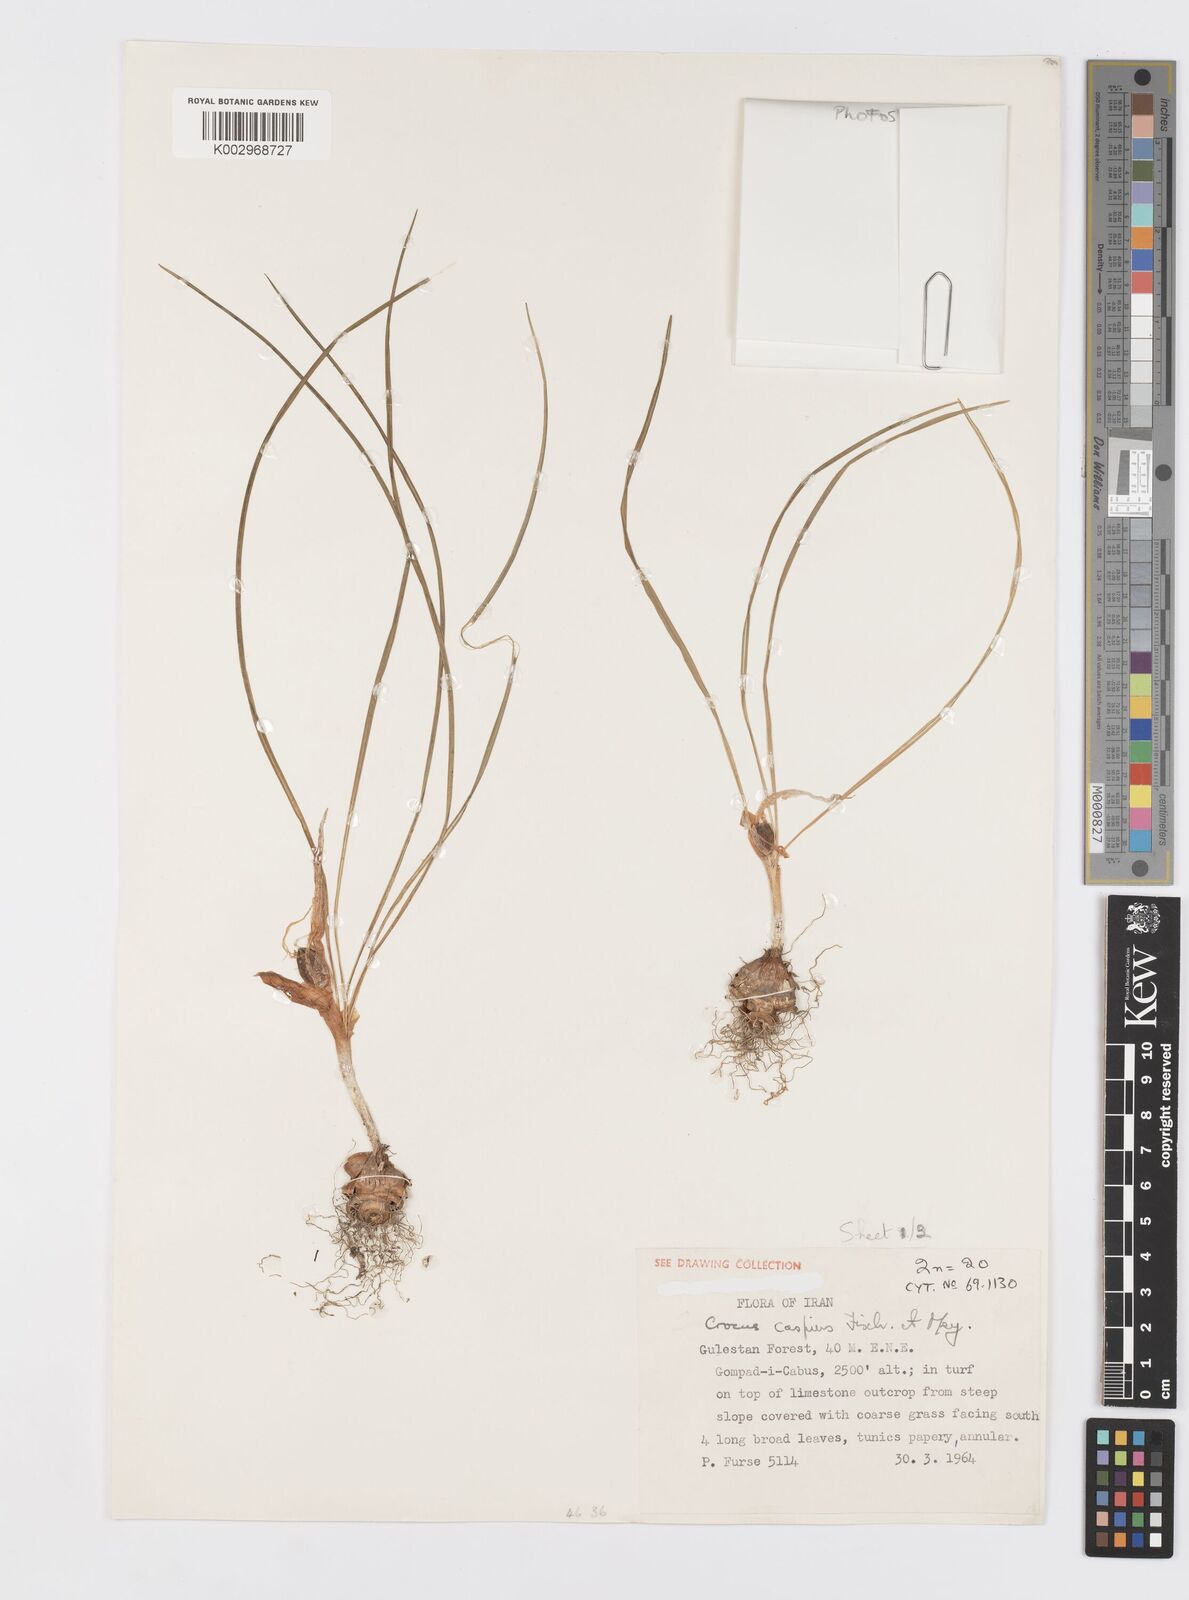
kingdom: Plantae
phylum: Tracheophyta
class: Liliopsida
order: Asparagales
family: Iridaceae
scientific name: Iridaceae
